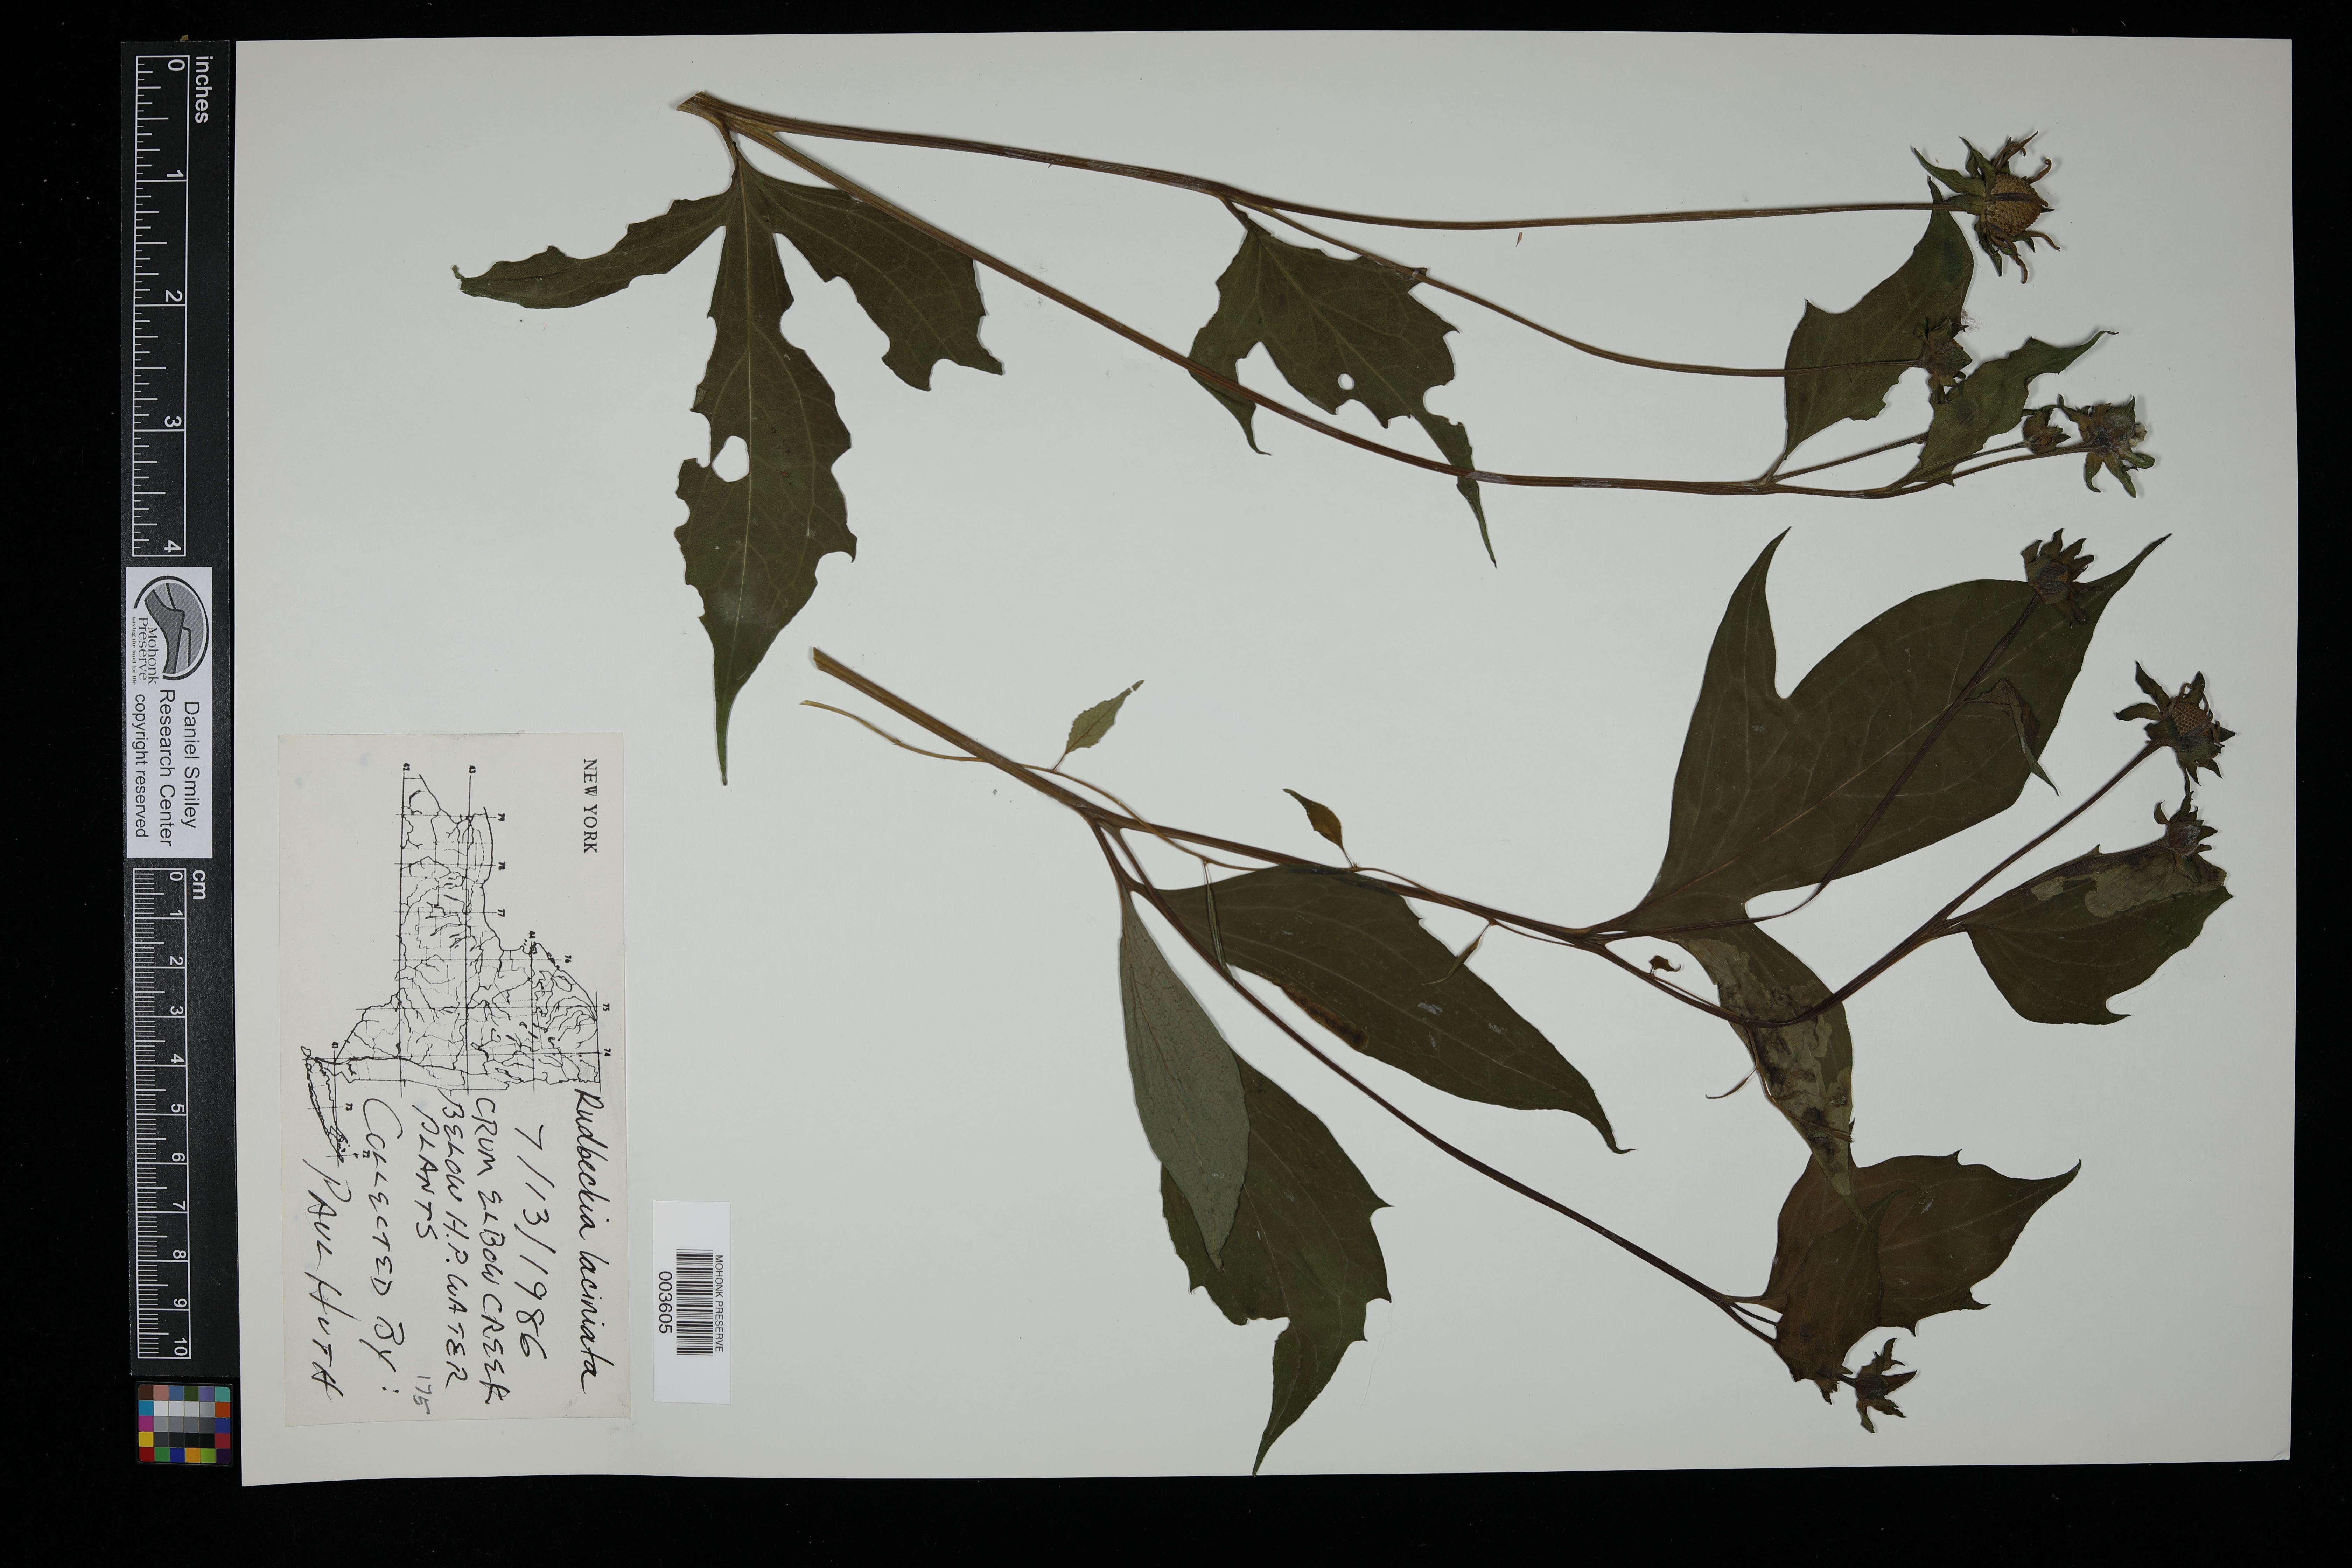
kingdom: Plantae
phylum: Tracheophyta
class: Magnoliopsida
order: Asterales
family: Asteraceae
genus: Rudbeckia
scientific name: Rudbeckia
